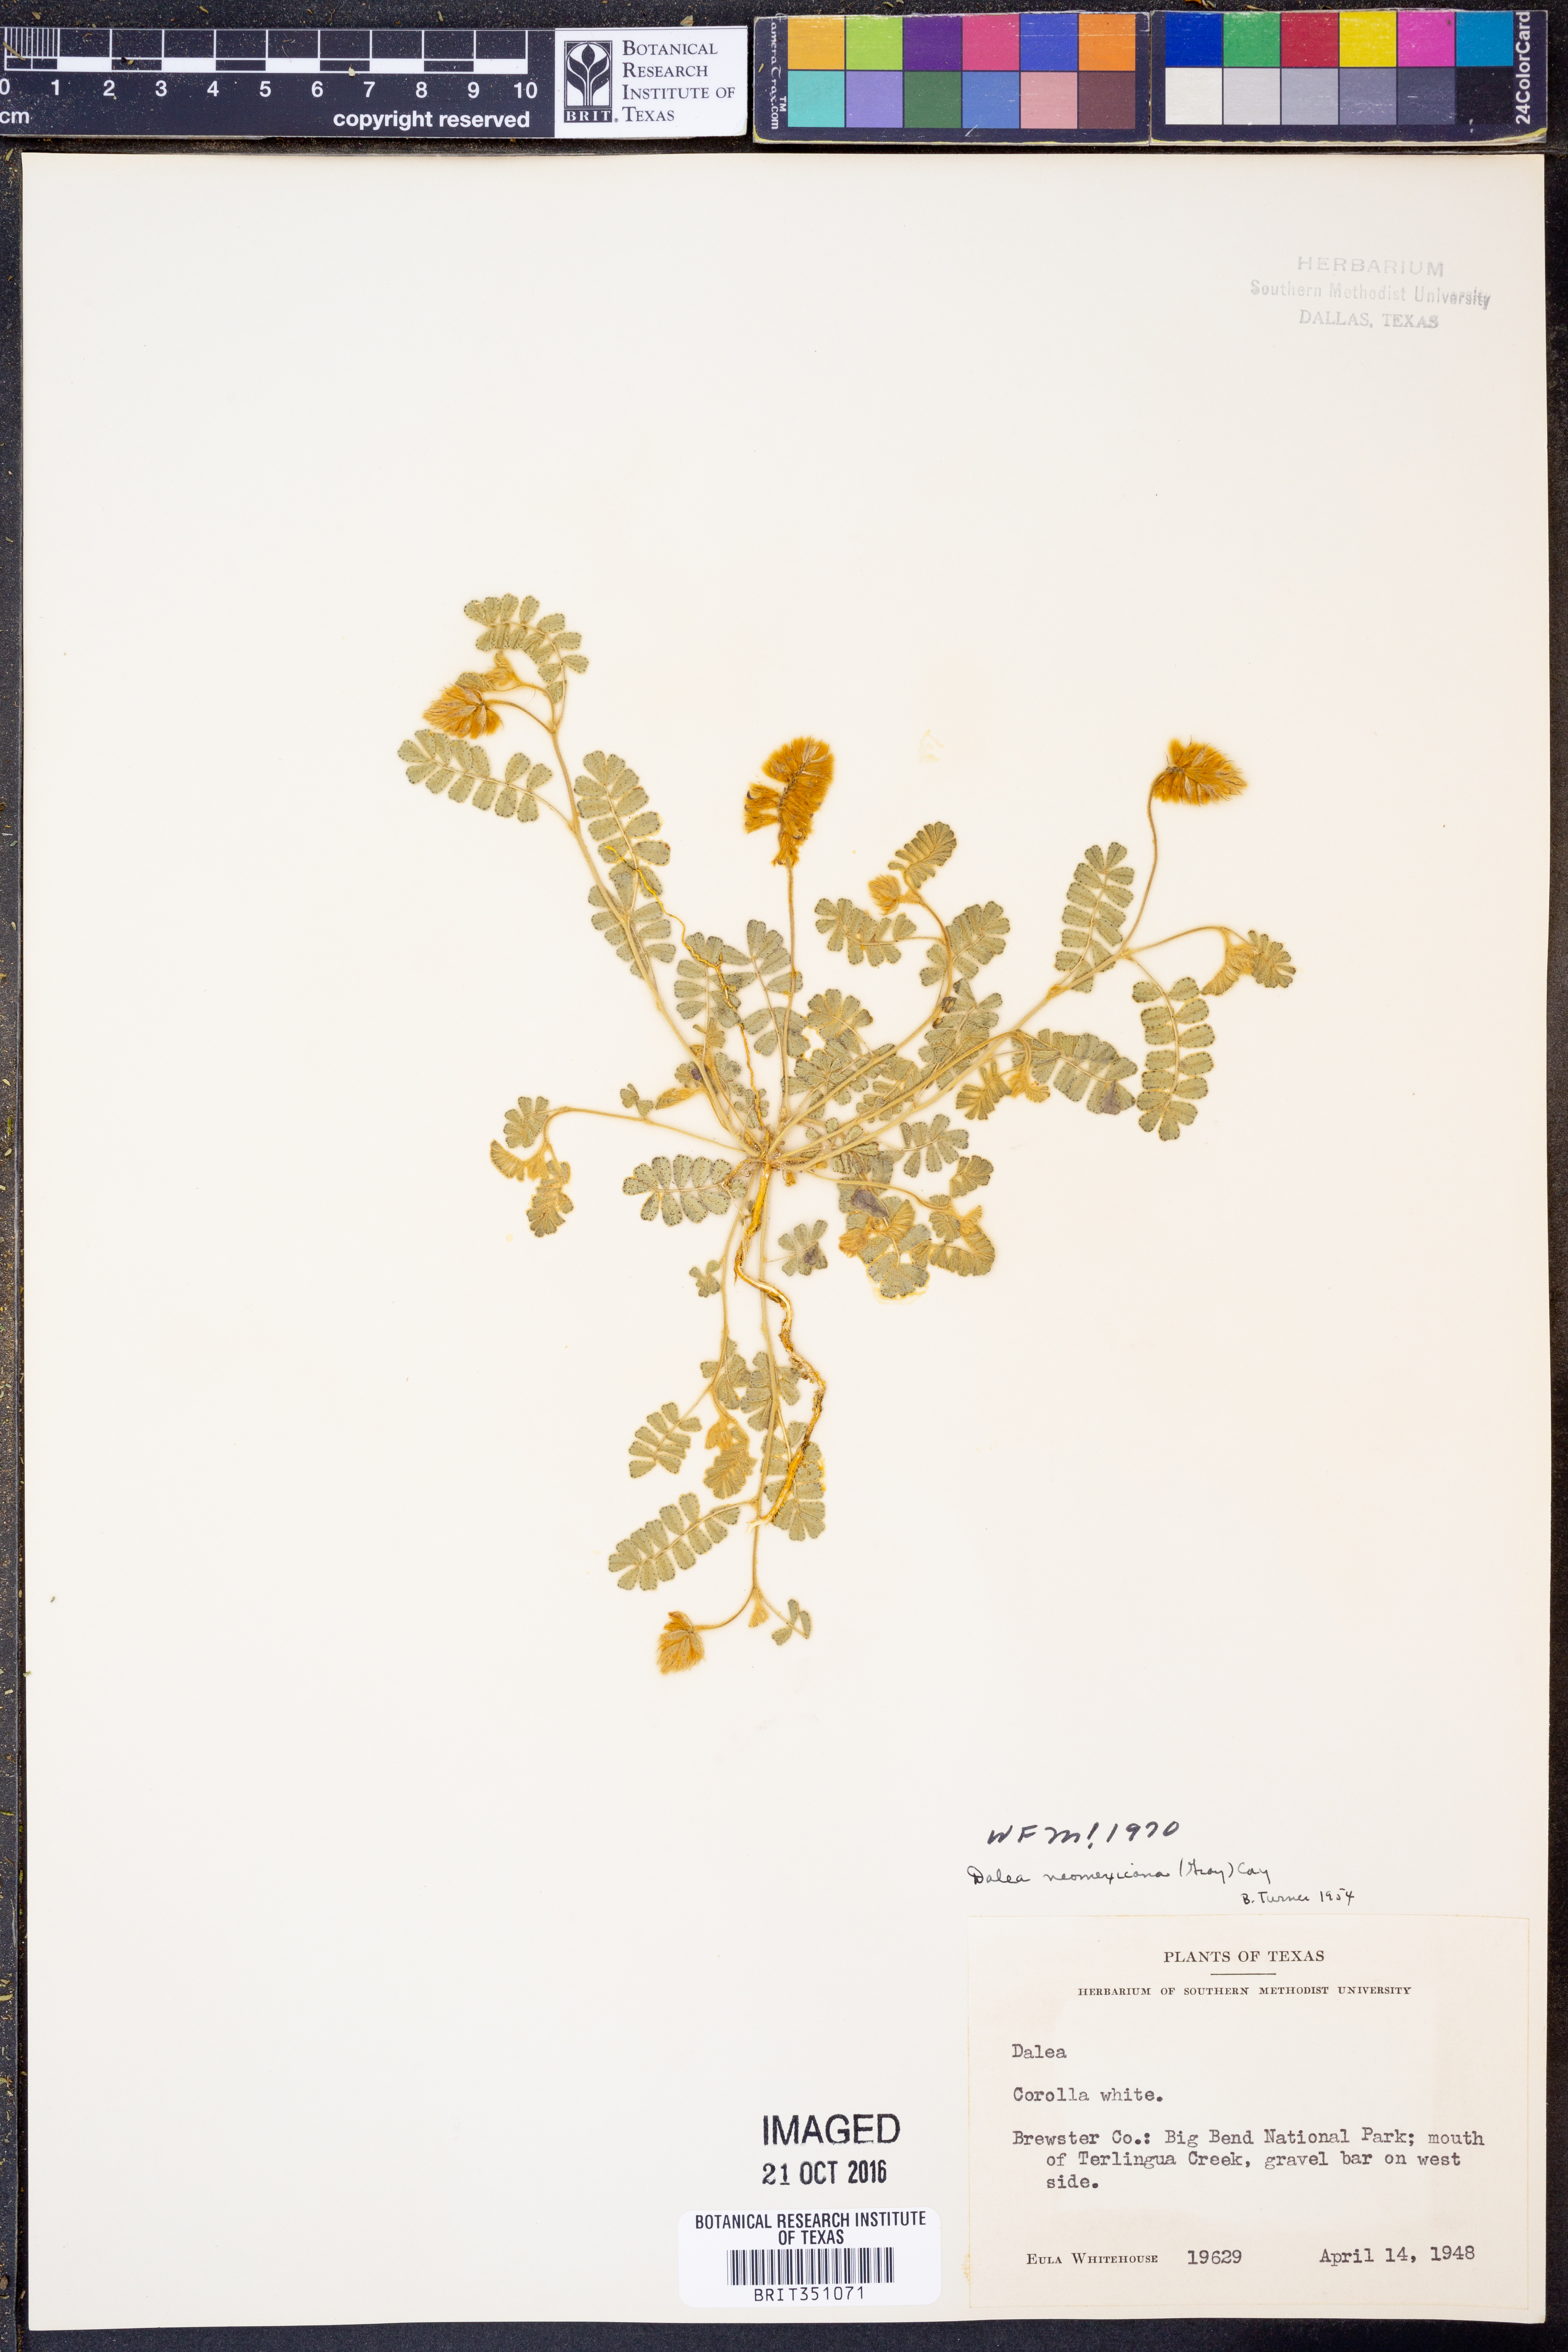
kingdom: Plantae
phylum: Tracheophyta
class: Magnoliopsida
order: Fabales
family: Fabaceae
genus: Dalea
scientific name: Dalea neomexicana
